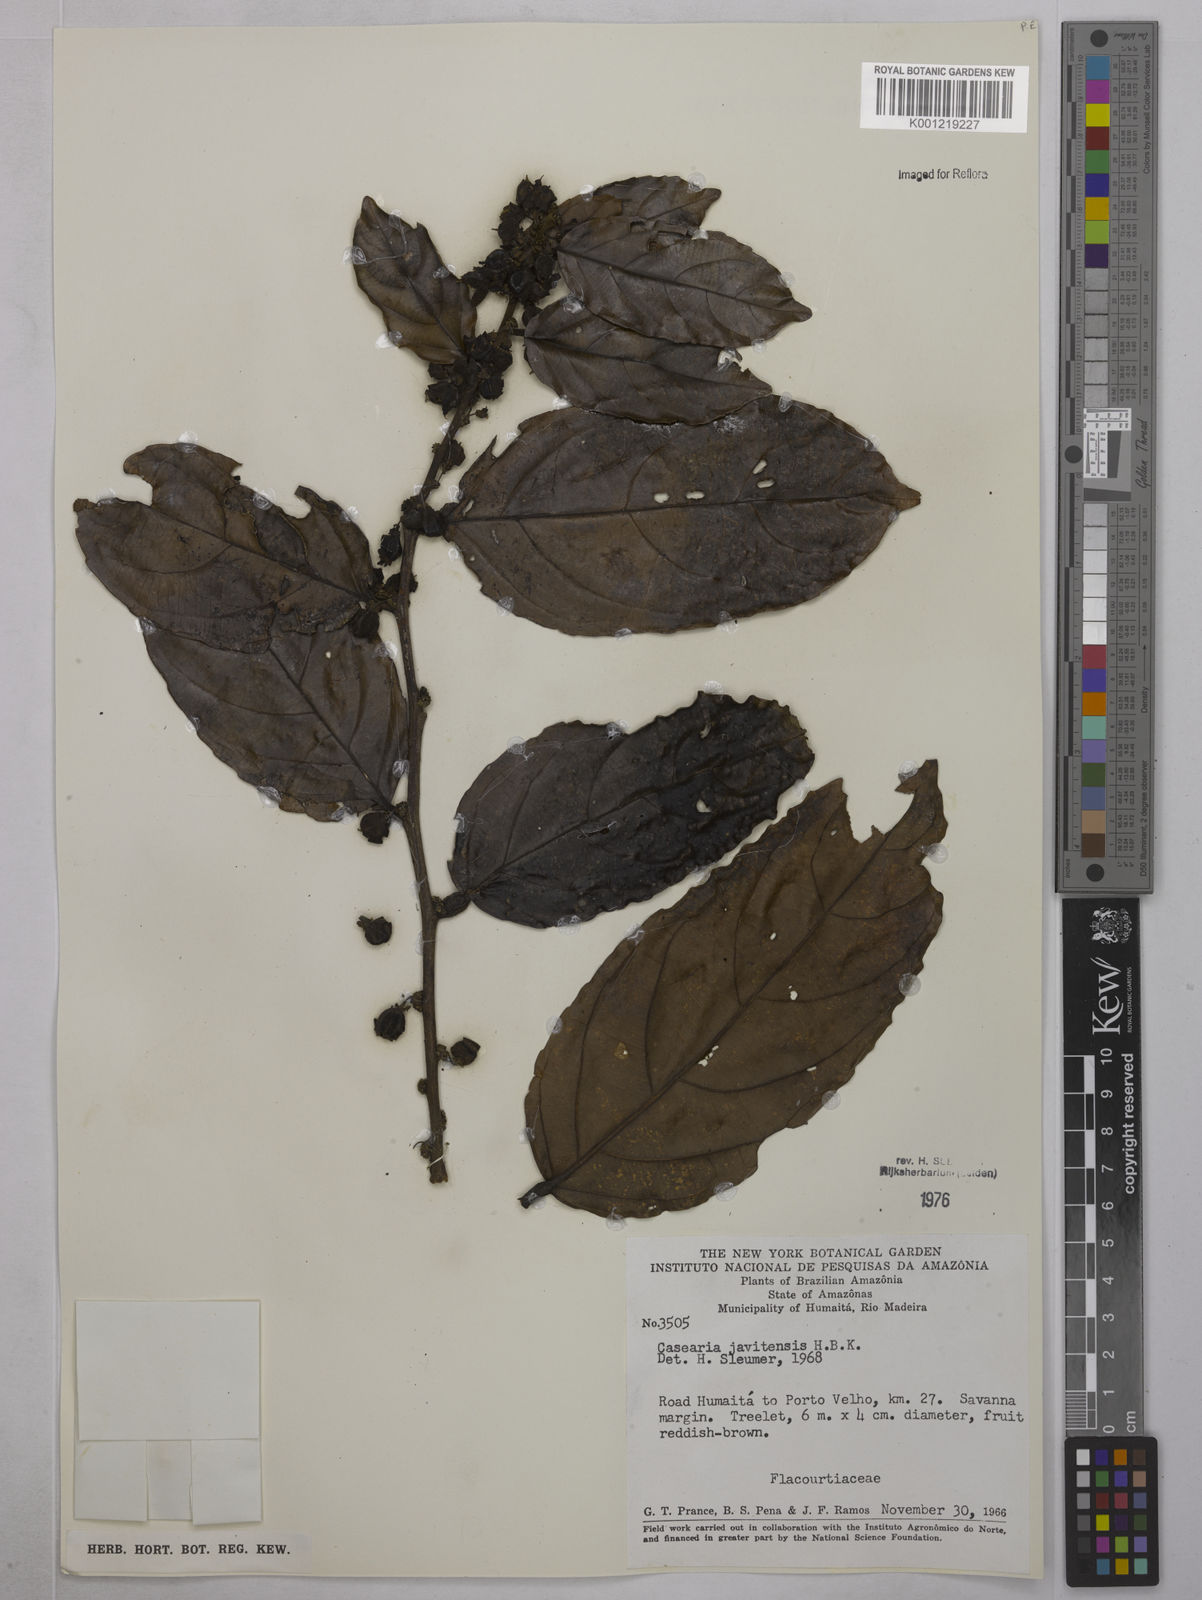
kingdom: Plantae
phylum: Tracheophyta
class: Magnoliopsida
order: Malpighiales
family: Salicaceae
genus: Piparea
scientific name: Piparea multiflora
